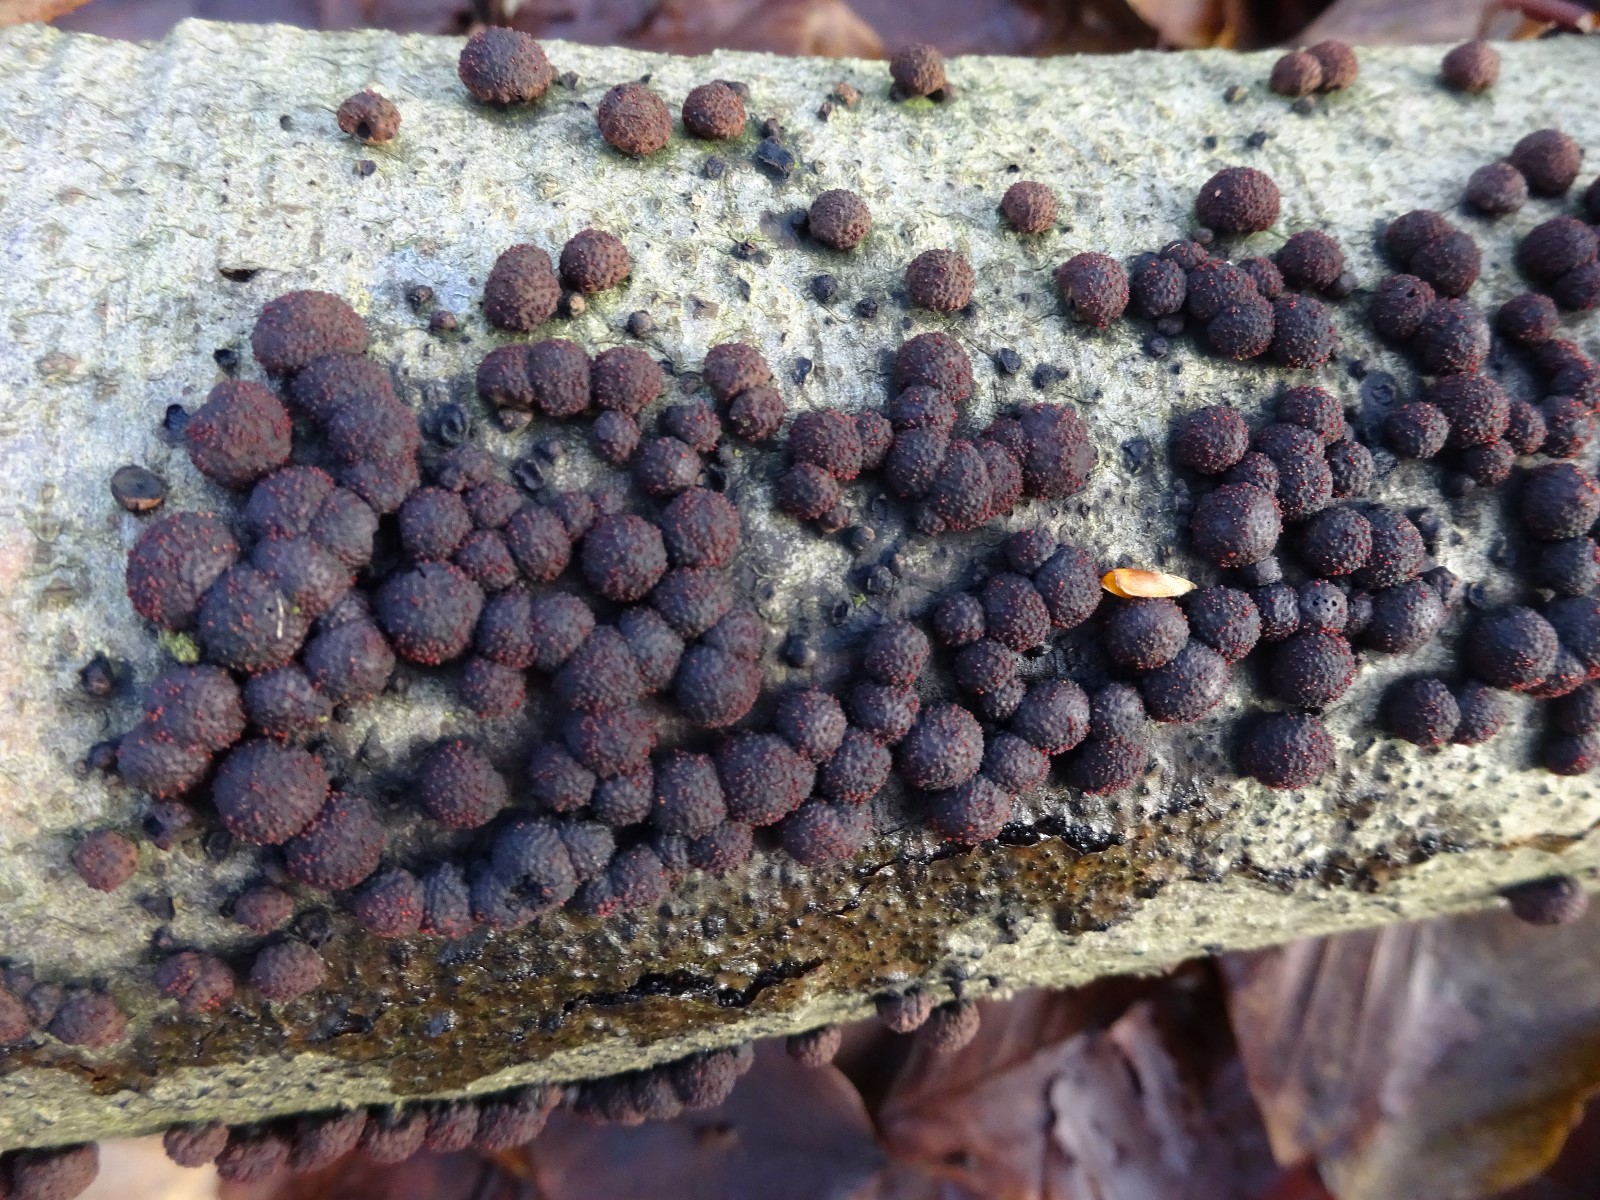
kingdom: Fungi
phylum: Ascomycota
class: Sordariomycetes
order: Xylariales
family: Hypoxylaceae
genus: Hypoxylon
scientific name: Hypoxylon fragiforme
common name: kuljordbær
